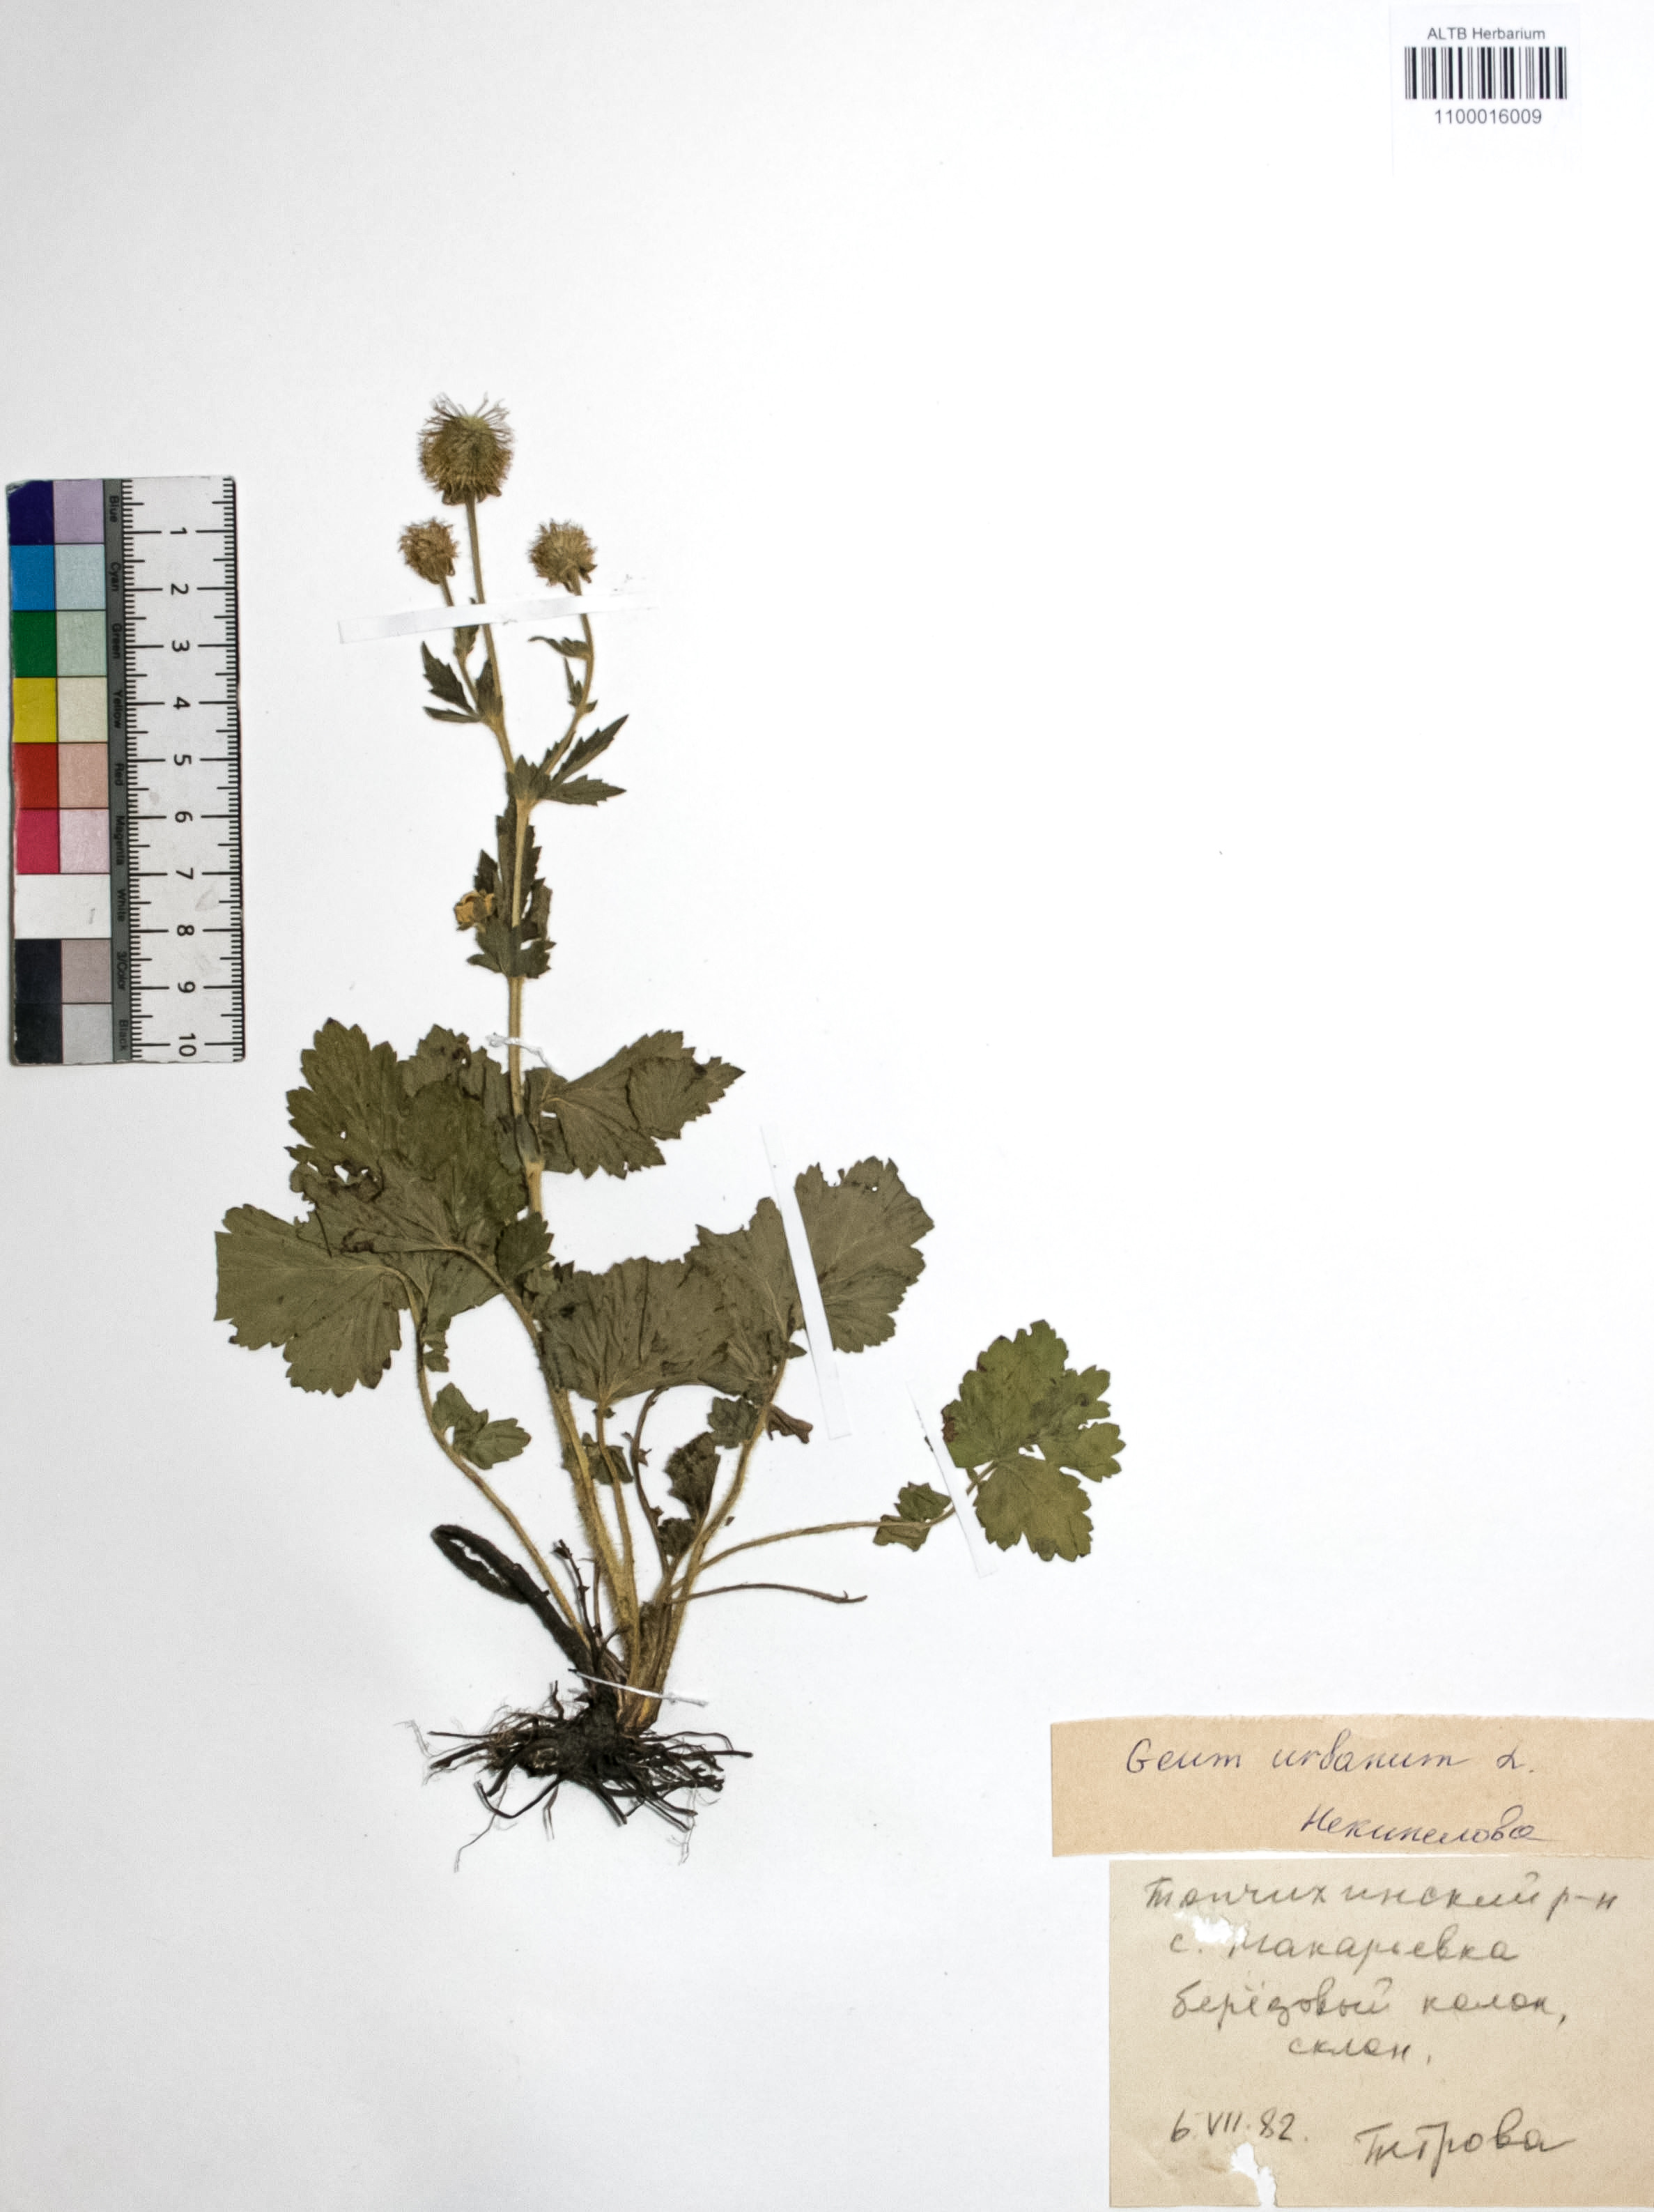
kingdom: Plantae
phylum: Tracheophyta
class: Magnoliopsida
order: Rosales
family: Rosaceae
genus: Geum
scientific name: Geum urbanum
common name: Wood avens
